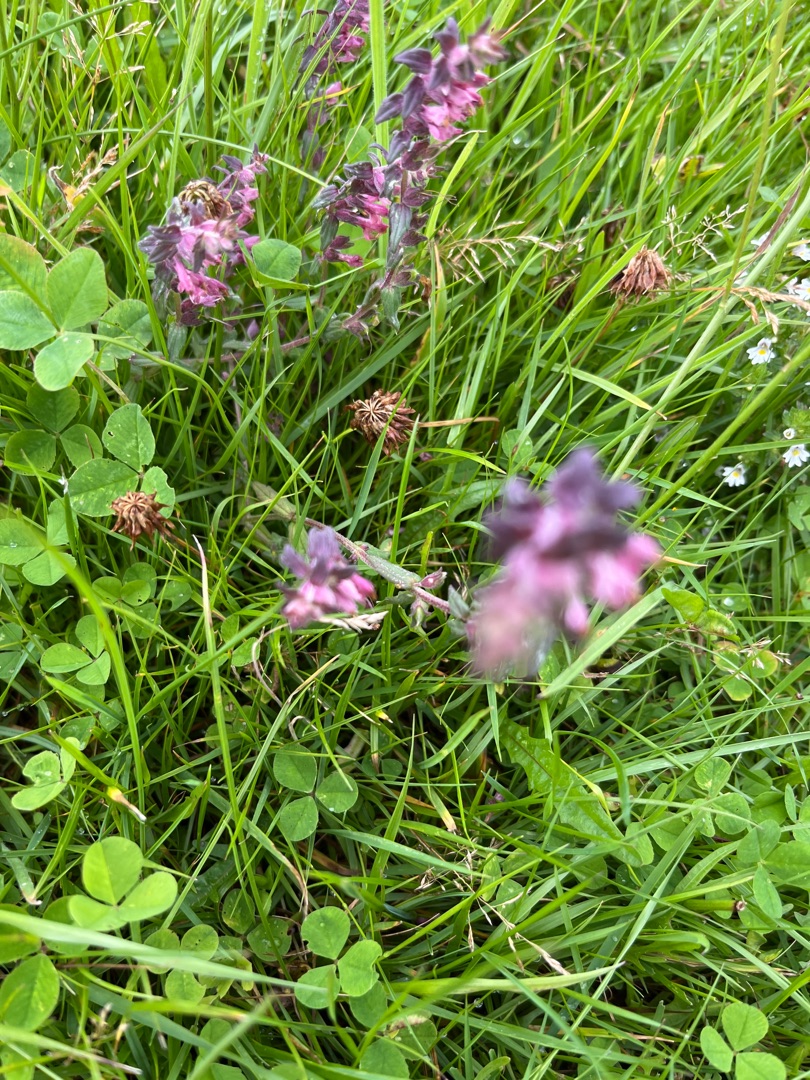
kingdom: Plantae
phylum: Tracheophyta
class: Magnoliopsida
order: Lamiales
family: Orobanchaceae
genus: Odontites
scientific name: Odontites
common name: Rødtopslægten
